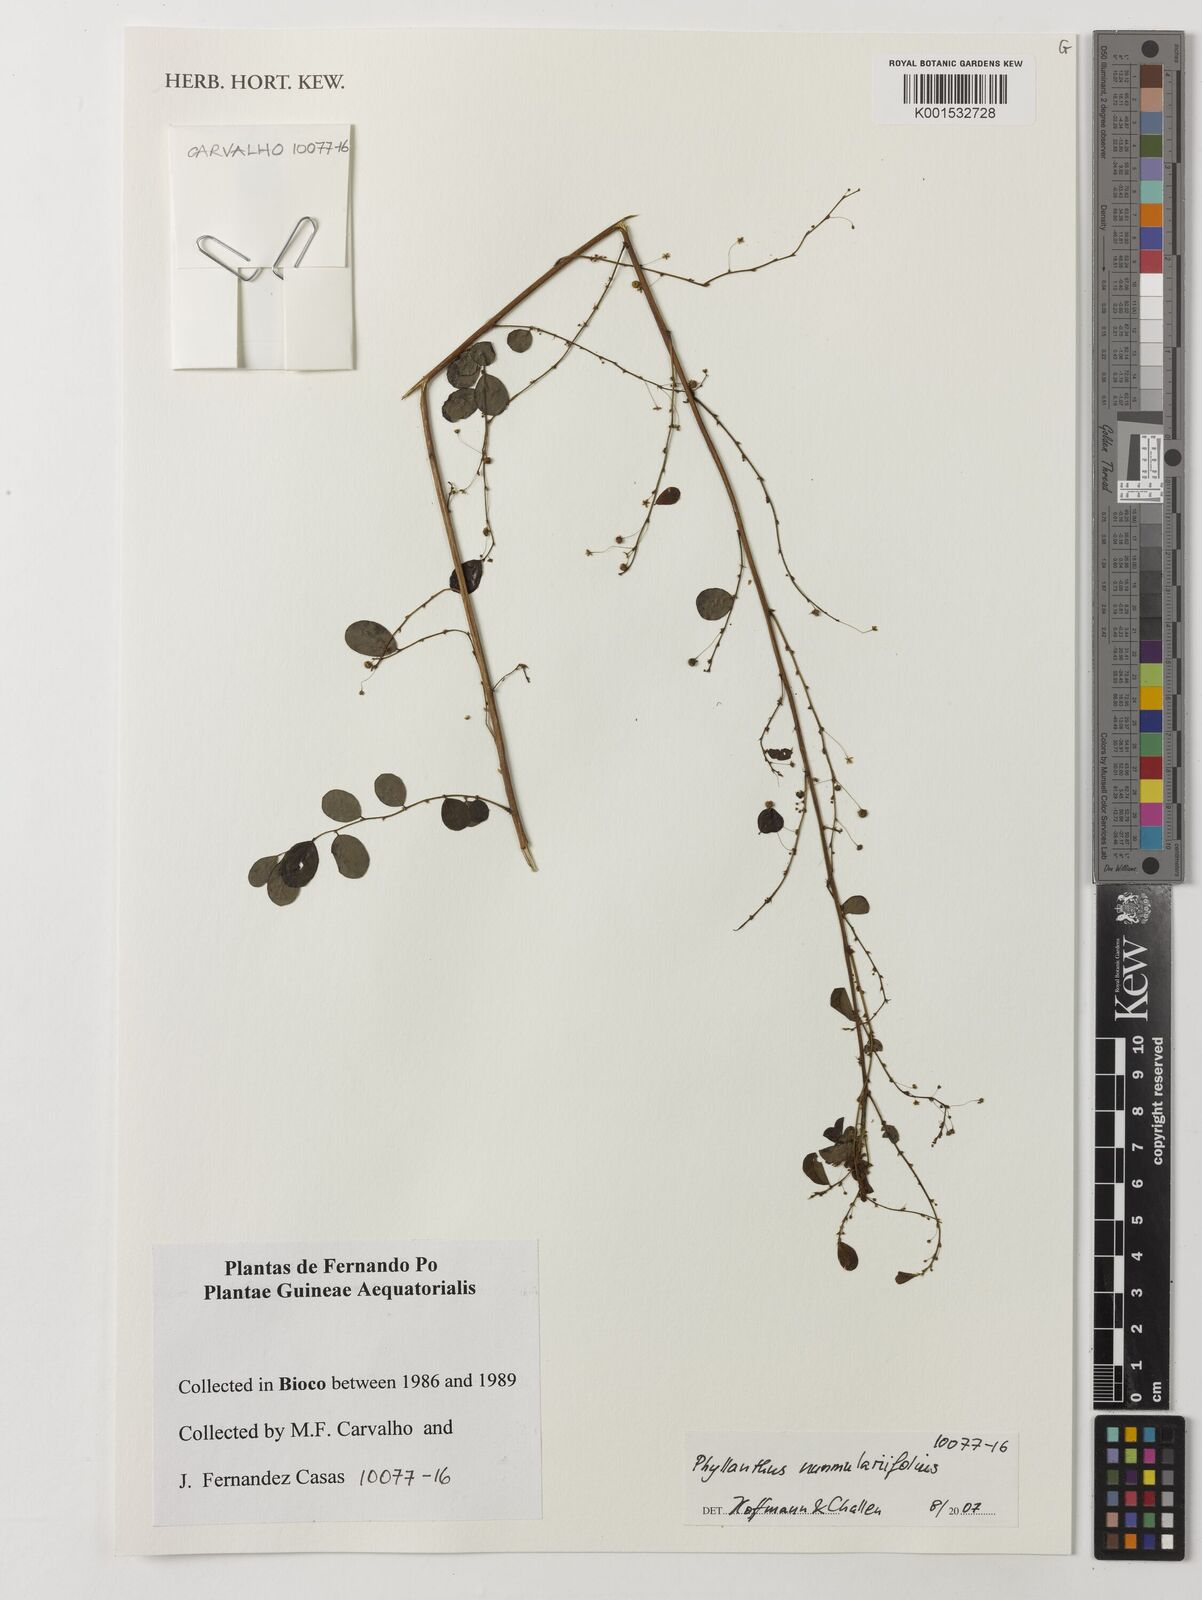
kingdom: Plantae
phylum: Tracheophyta
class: Magnoliopsida
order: Malpighiales
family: Phyllanthaceae
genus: Phyllanthus
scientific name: Phyllanthus nummulariifolius
